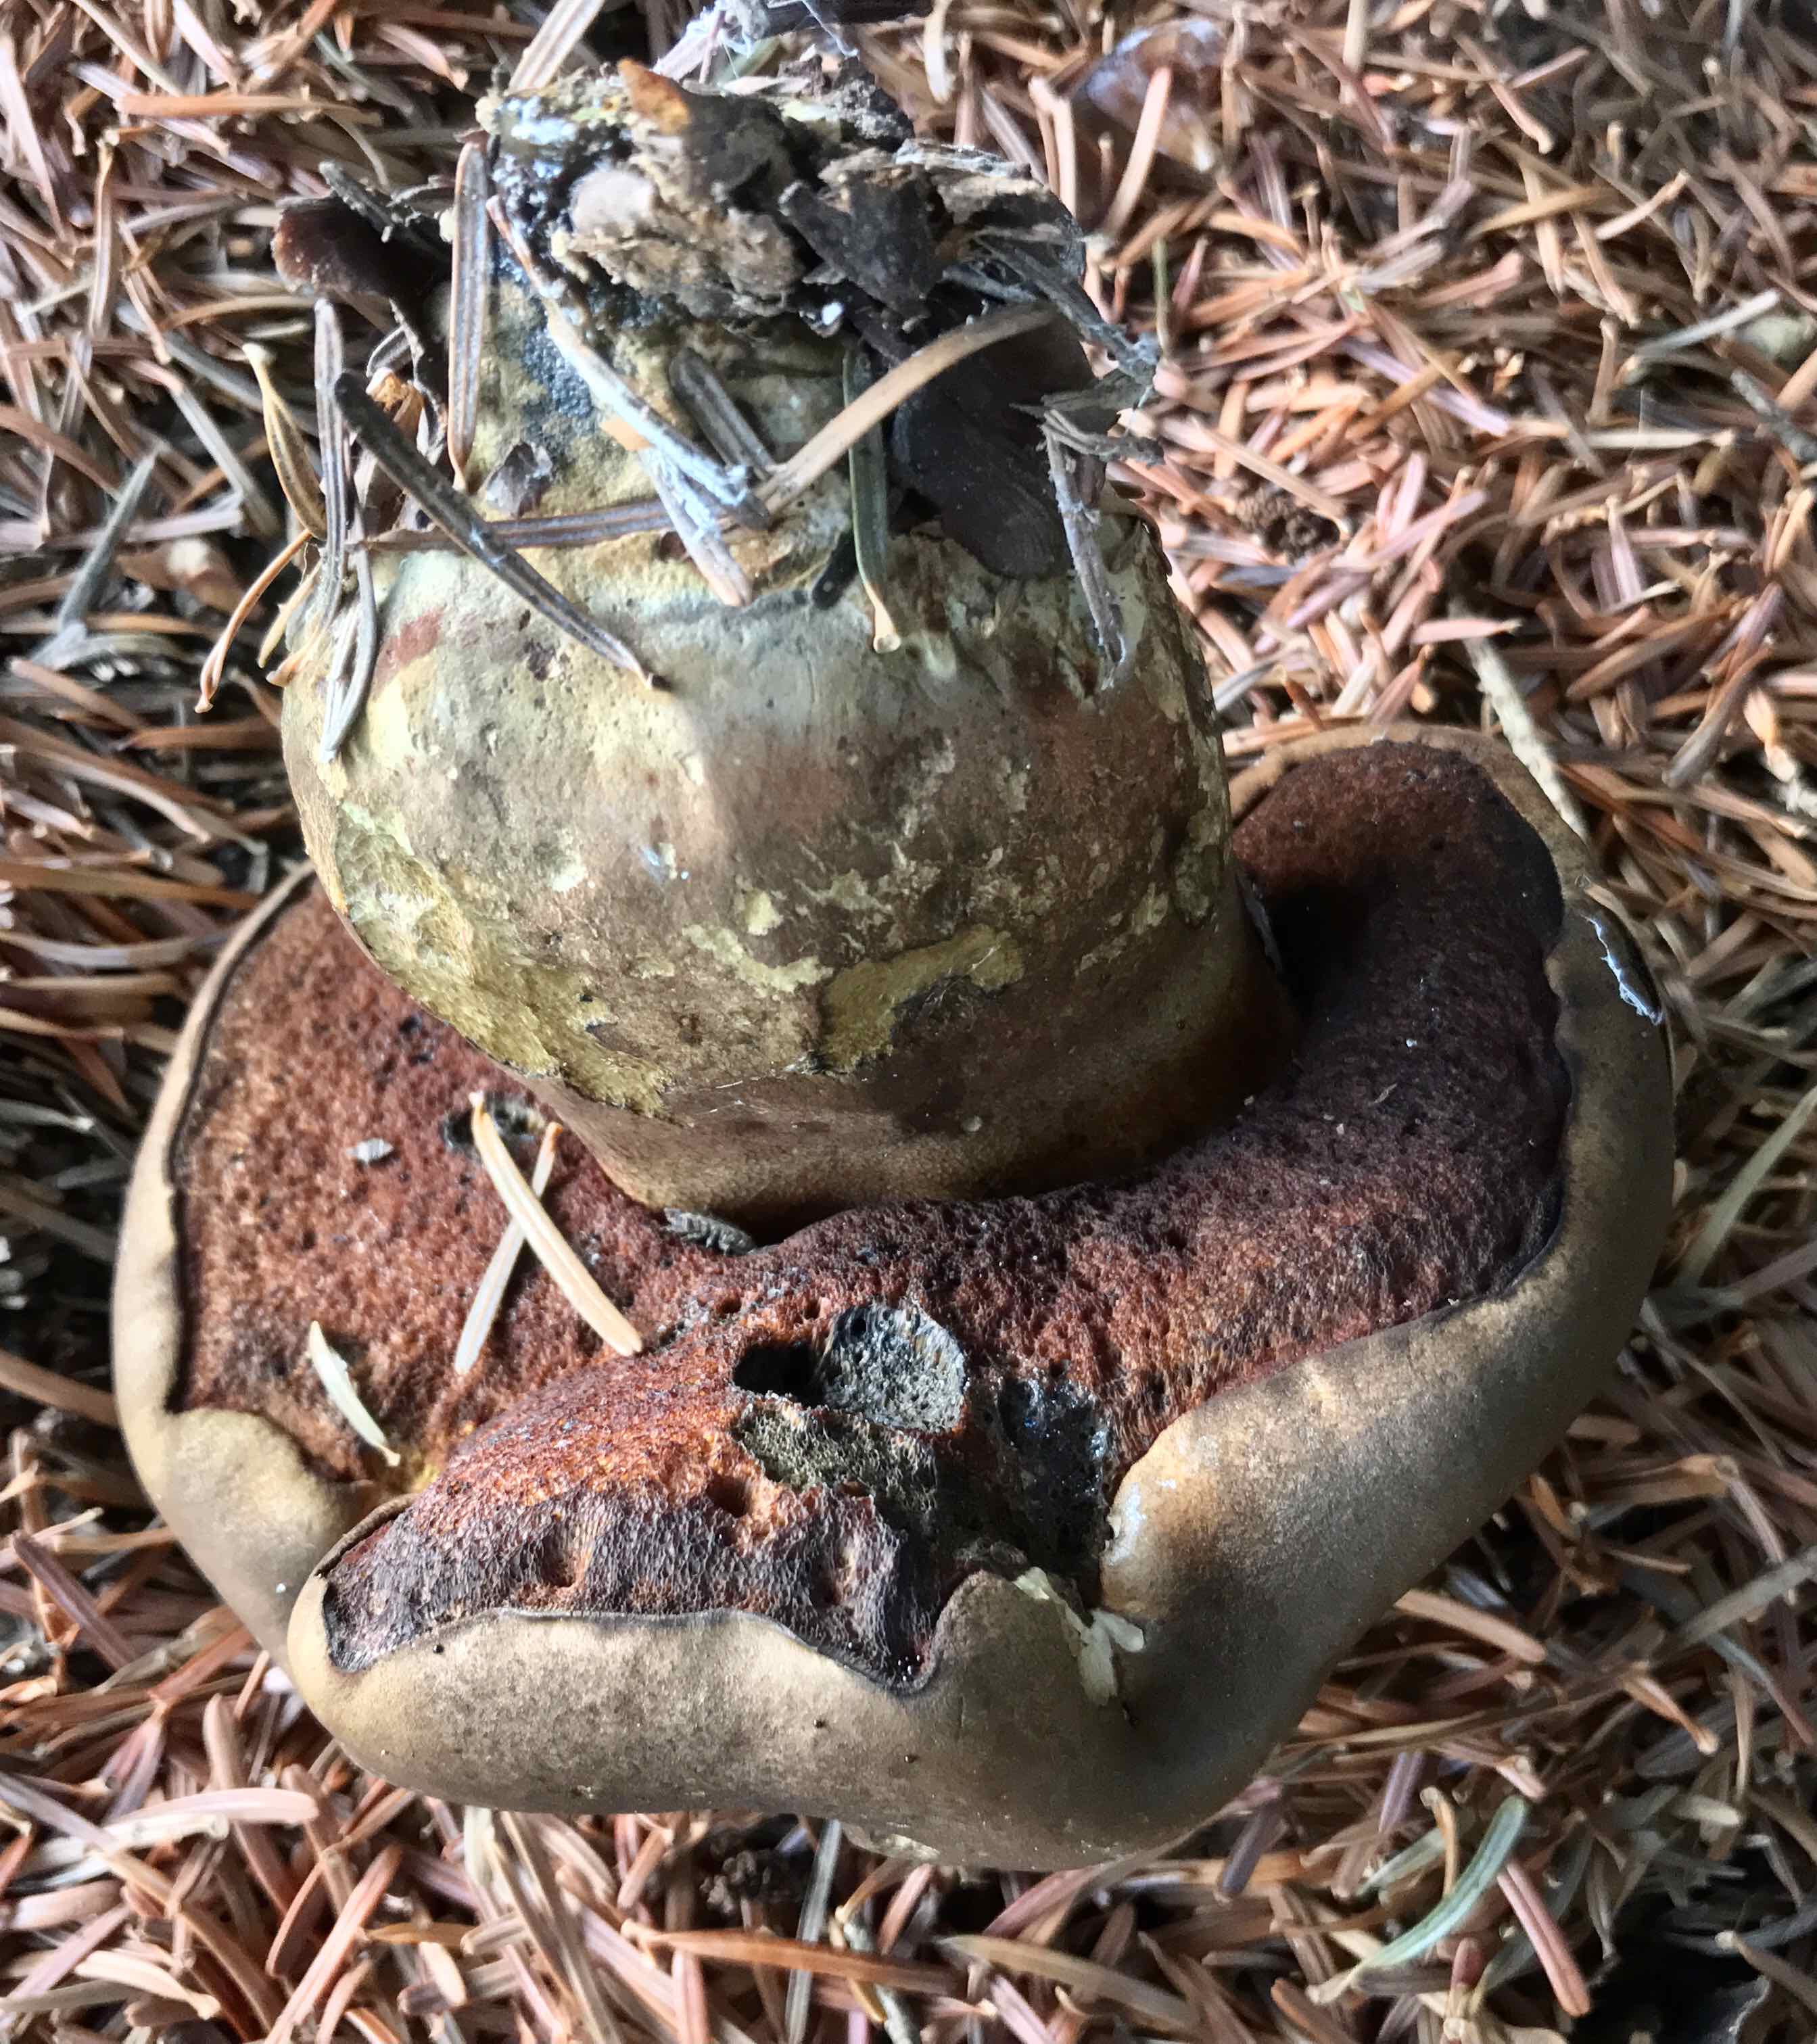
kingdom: Fungi
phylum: Basidiomycota
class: Agaricomycetes
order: Boletales
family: Boletaceae
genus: Neoboletus
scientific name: Neoboletus erythropus
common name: punktstokket indigorørhat
